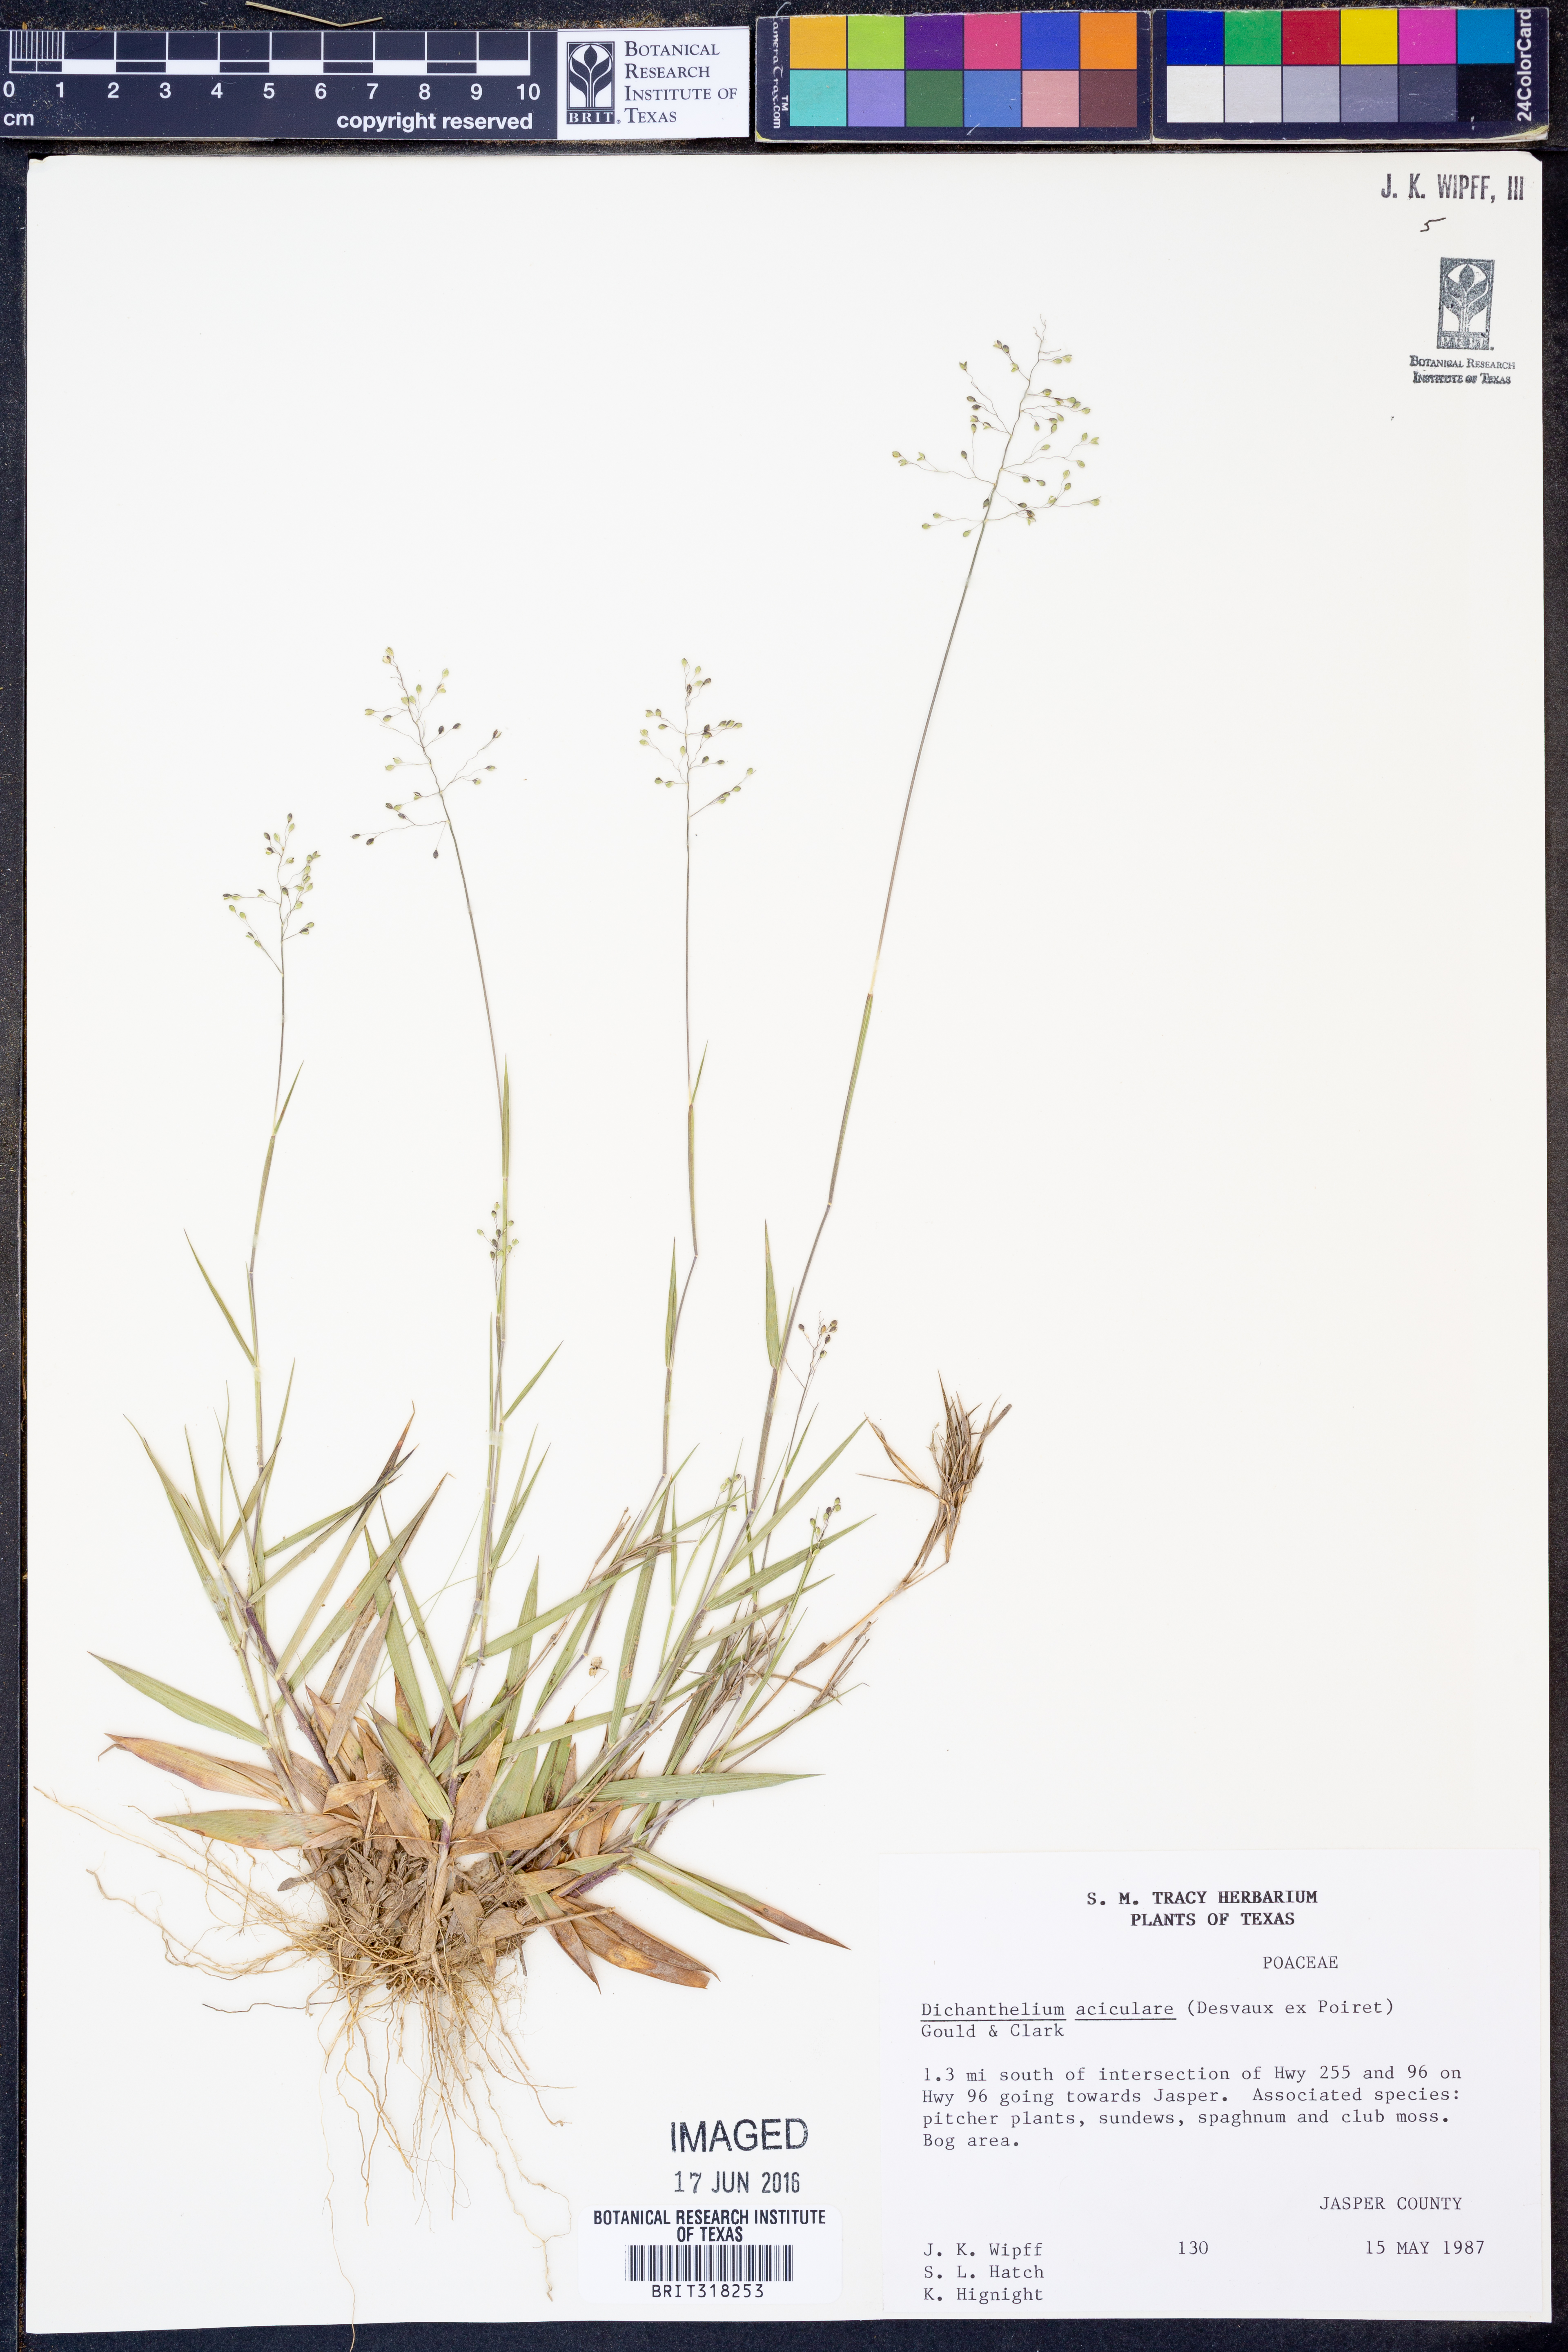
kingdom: Plantae
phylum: Tracheophyta
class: Liliopsida
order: Poales
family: Poaceae
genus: Dichanthelium
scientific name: Dichanthelium aciculare
